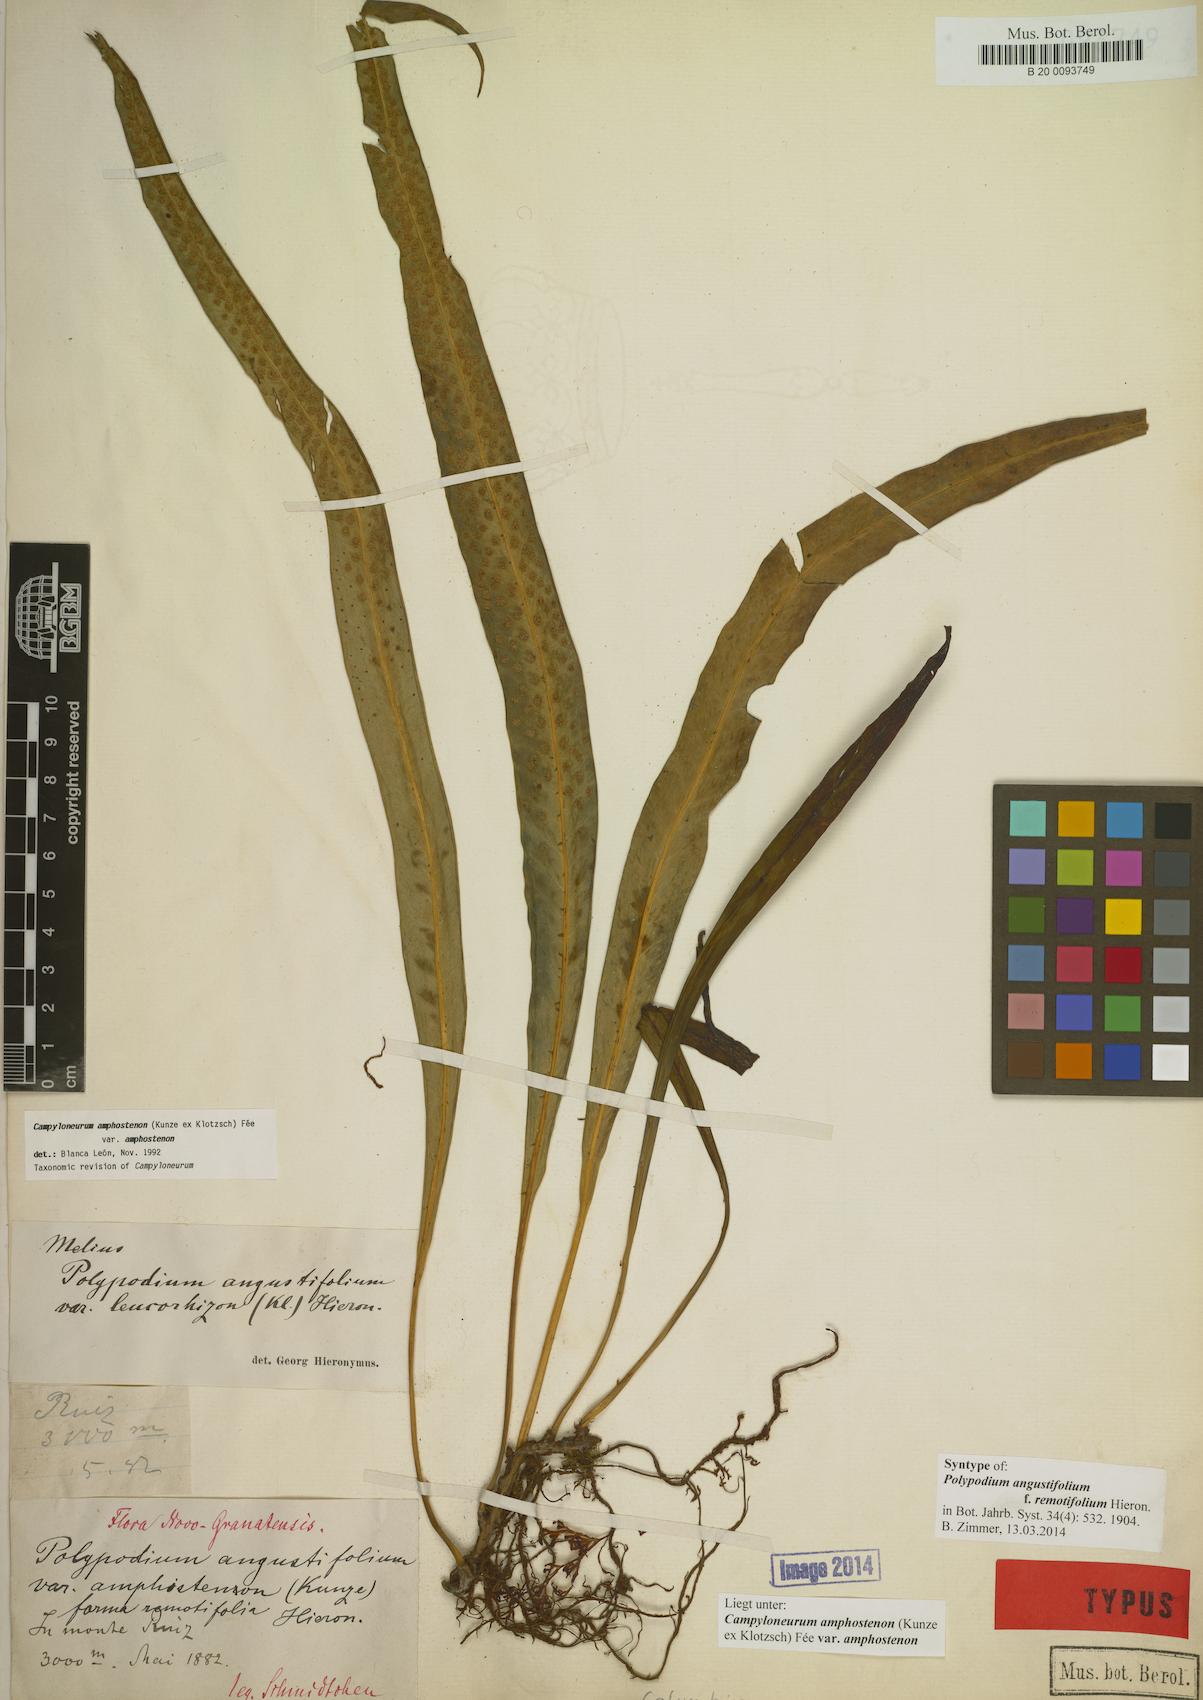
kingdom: Plantae
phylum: Tracheophyta
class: Polypodiopsida
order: Polypodiales
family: Polypodiaceae
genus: Campyloneurum
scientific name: Campyloneurum solutum
